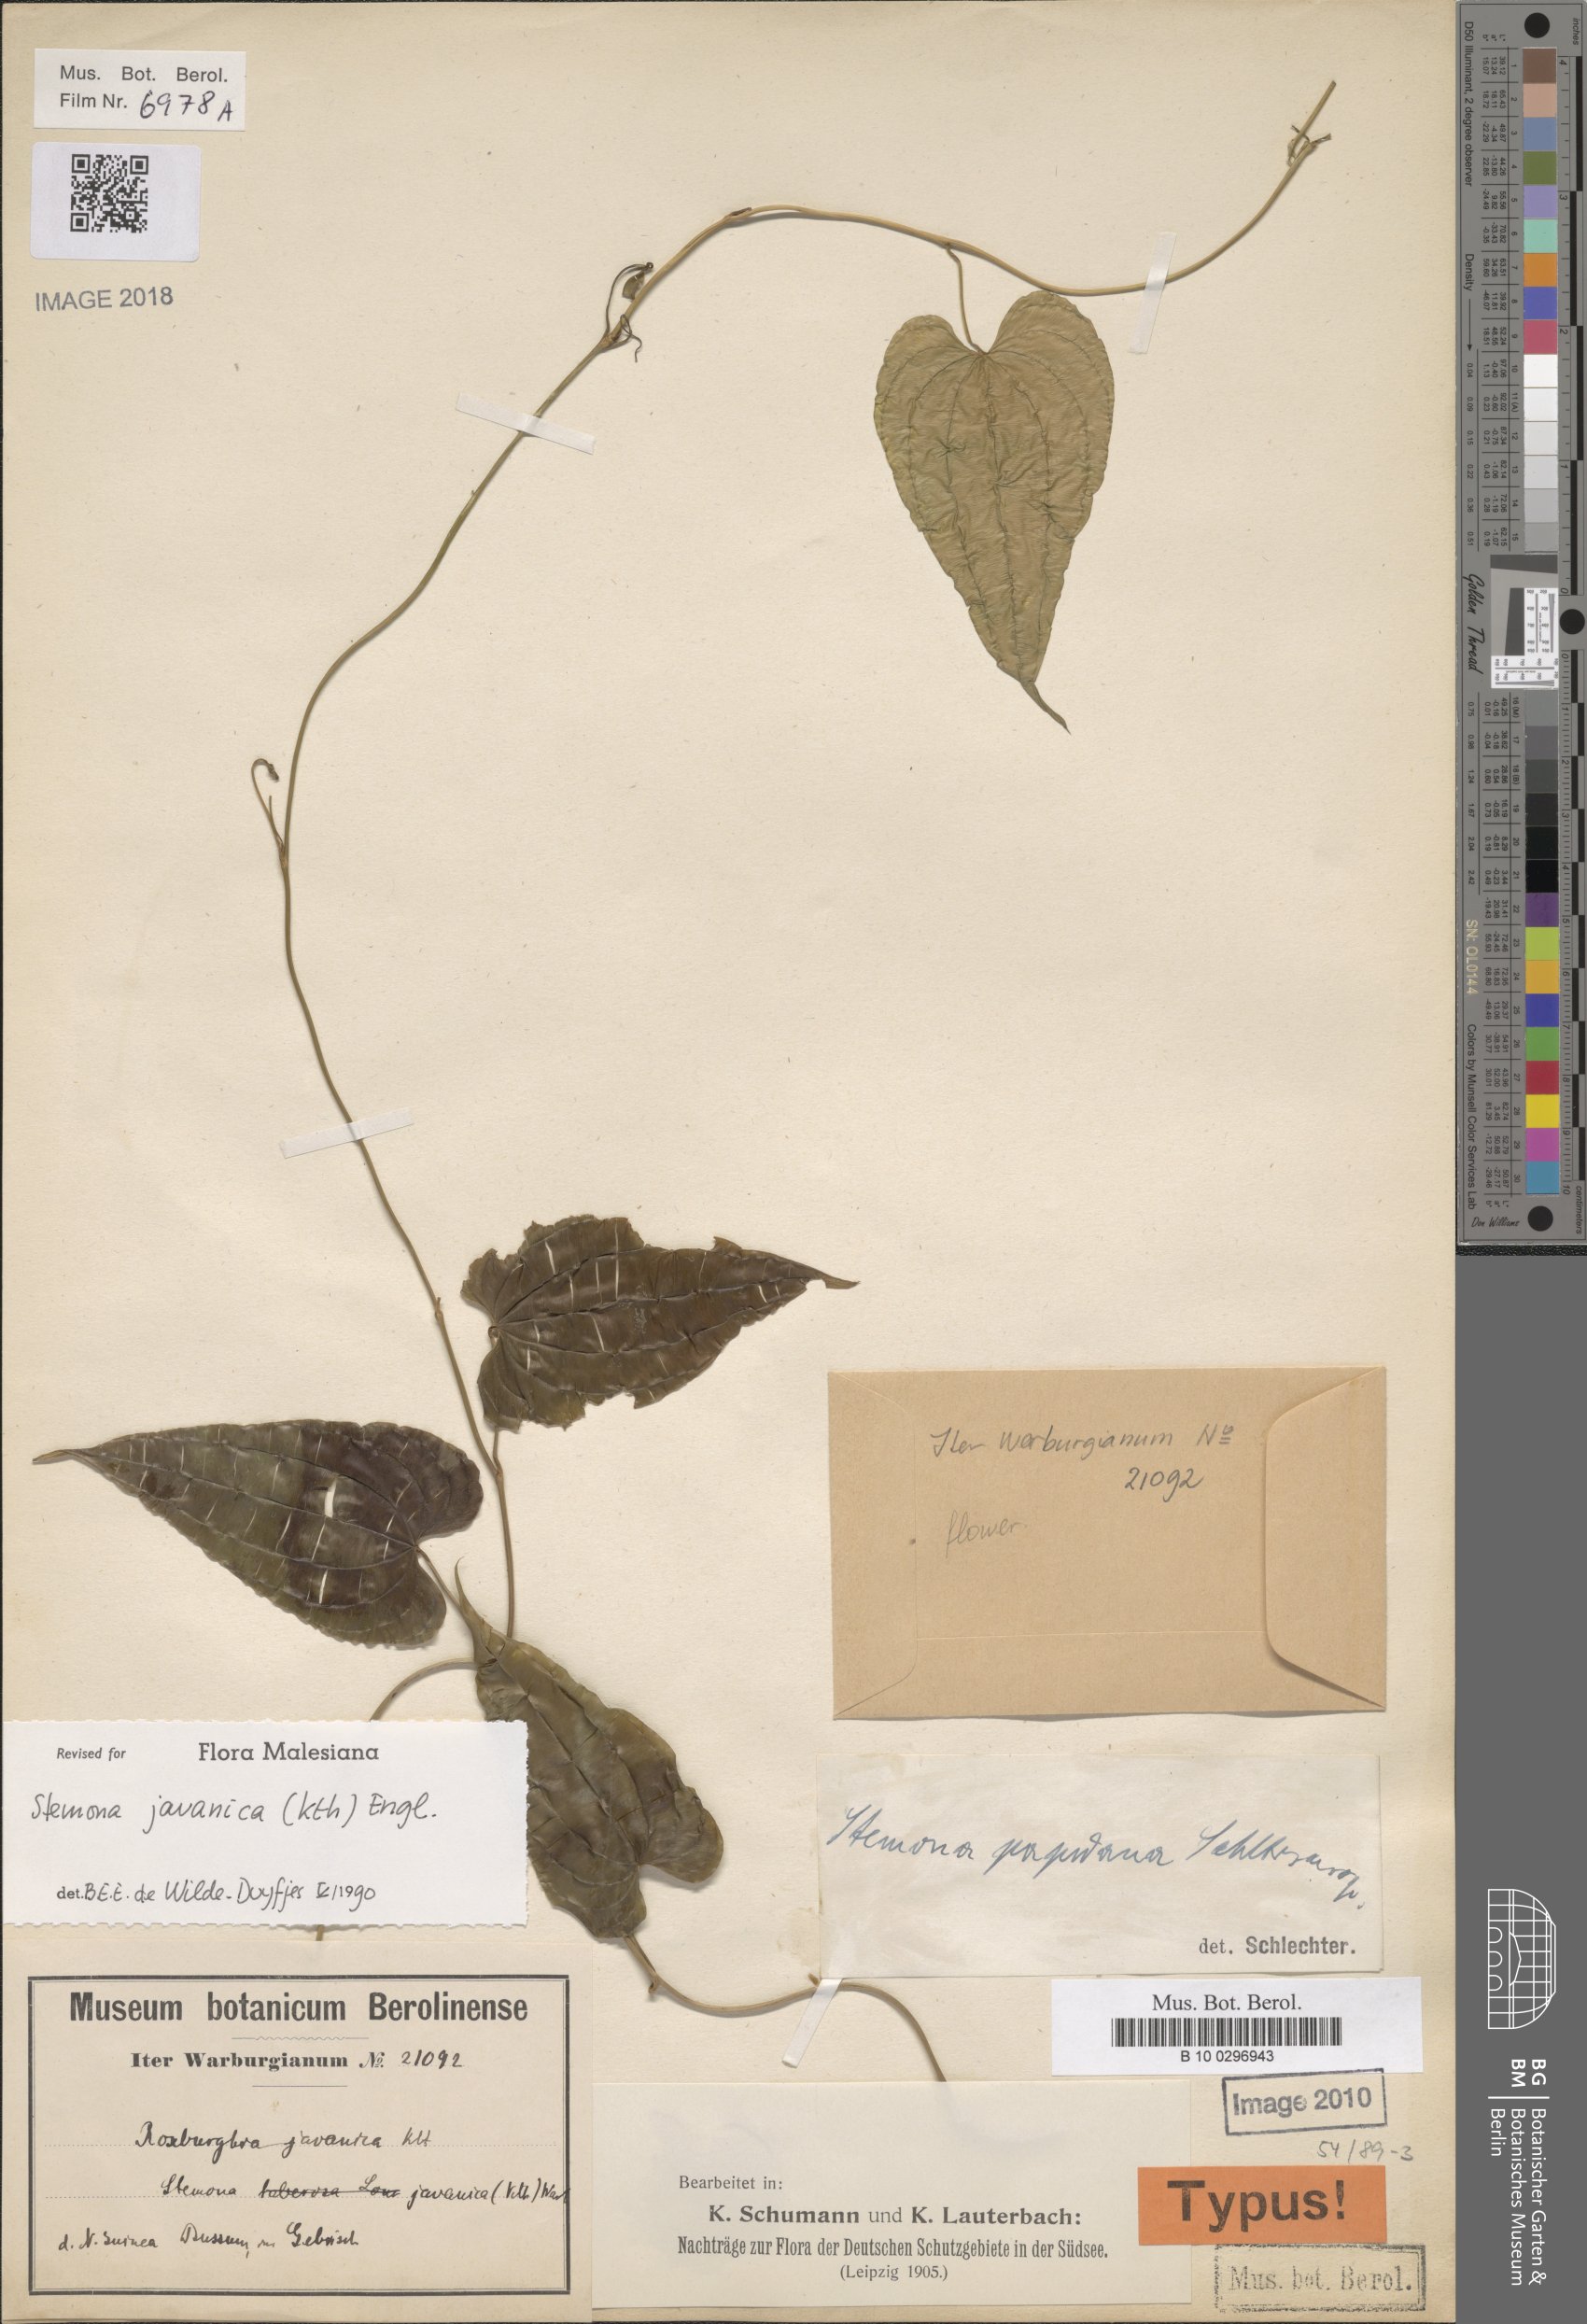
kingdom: Plantae
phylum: Tracheophyta
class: Liliopsida
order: Pandanales
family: Stemonaceae
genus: Stemona
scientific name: Stemona javanica
